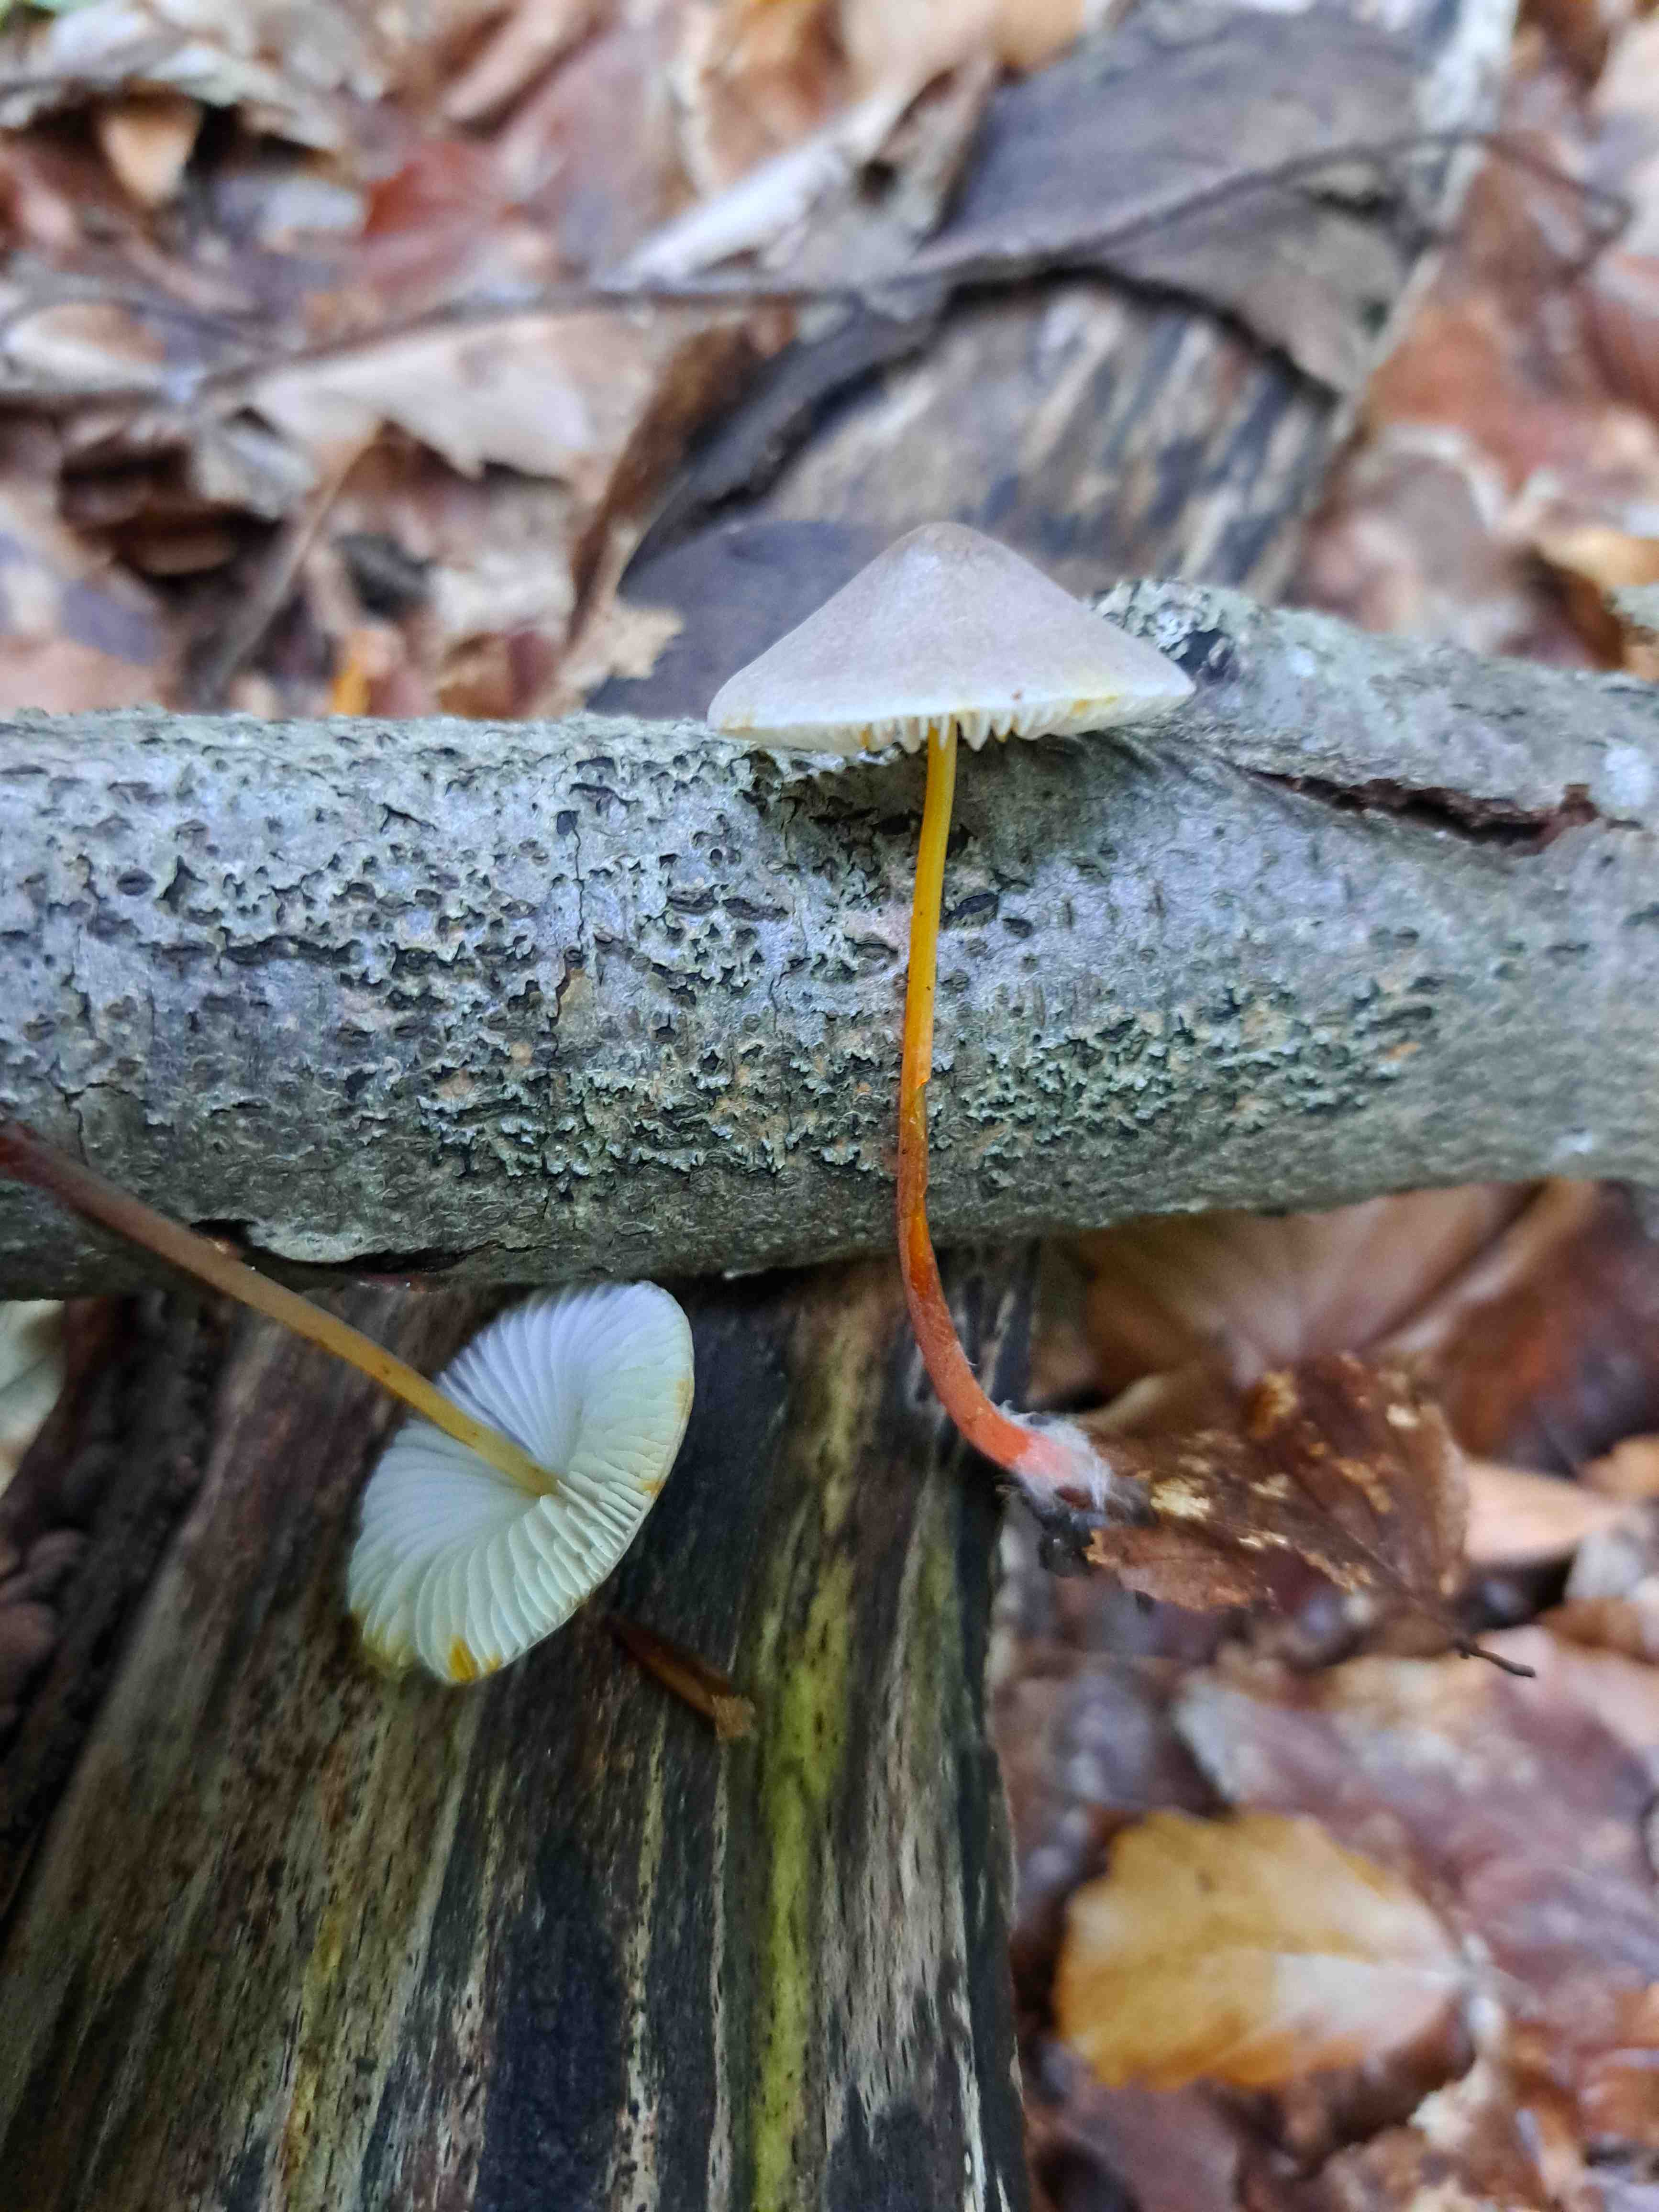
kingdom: Fungi
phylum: Basidiomycota
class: Agaricomycetes
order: Agaricales
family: Mycenaceae
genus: Mycena
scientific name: Mycena crocata
